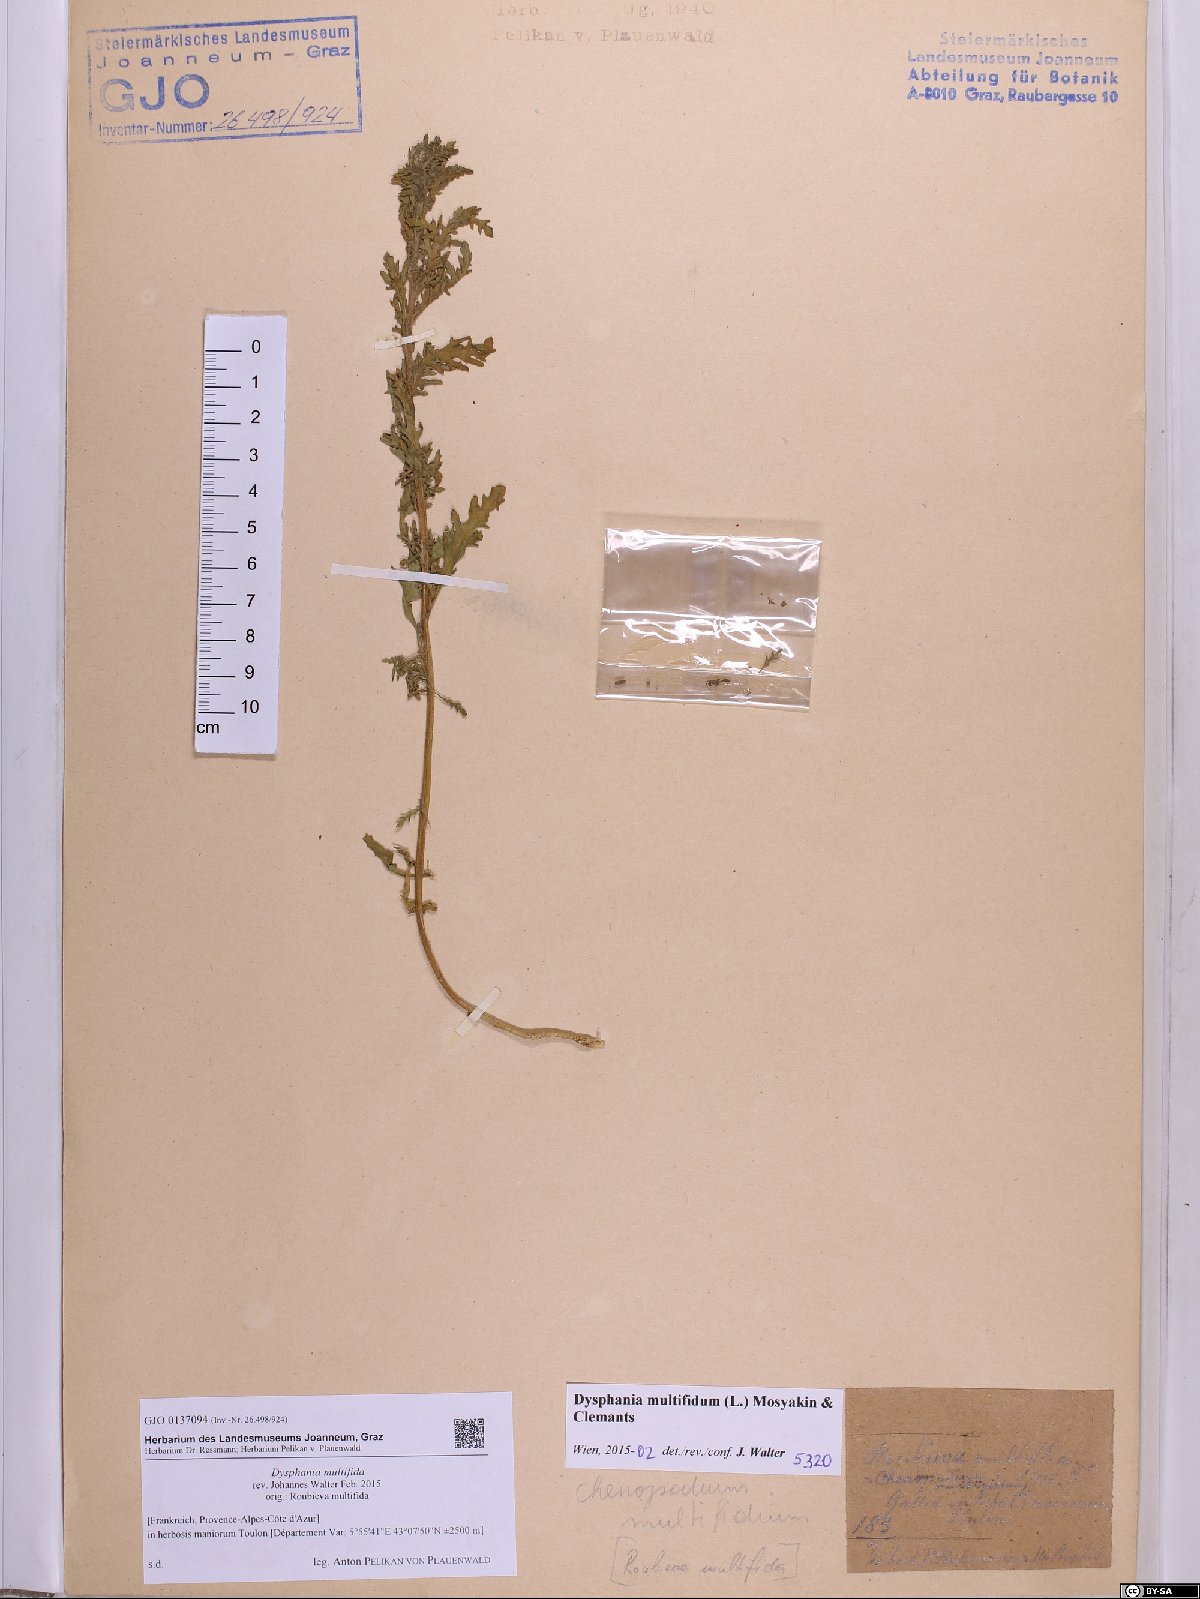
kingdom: Plantae
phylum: Tracheophyta
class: Magnoliopsida
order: Caryophyllales
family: Amaranthaceae
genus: Dysphania
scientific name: Dysphania multifida
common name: Cutleaf goosefoot
